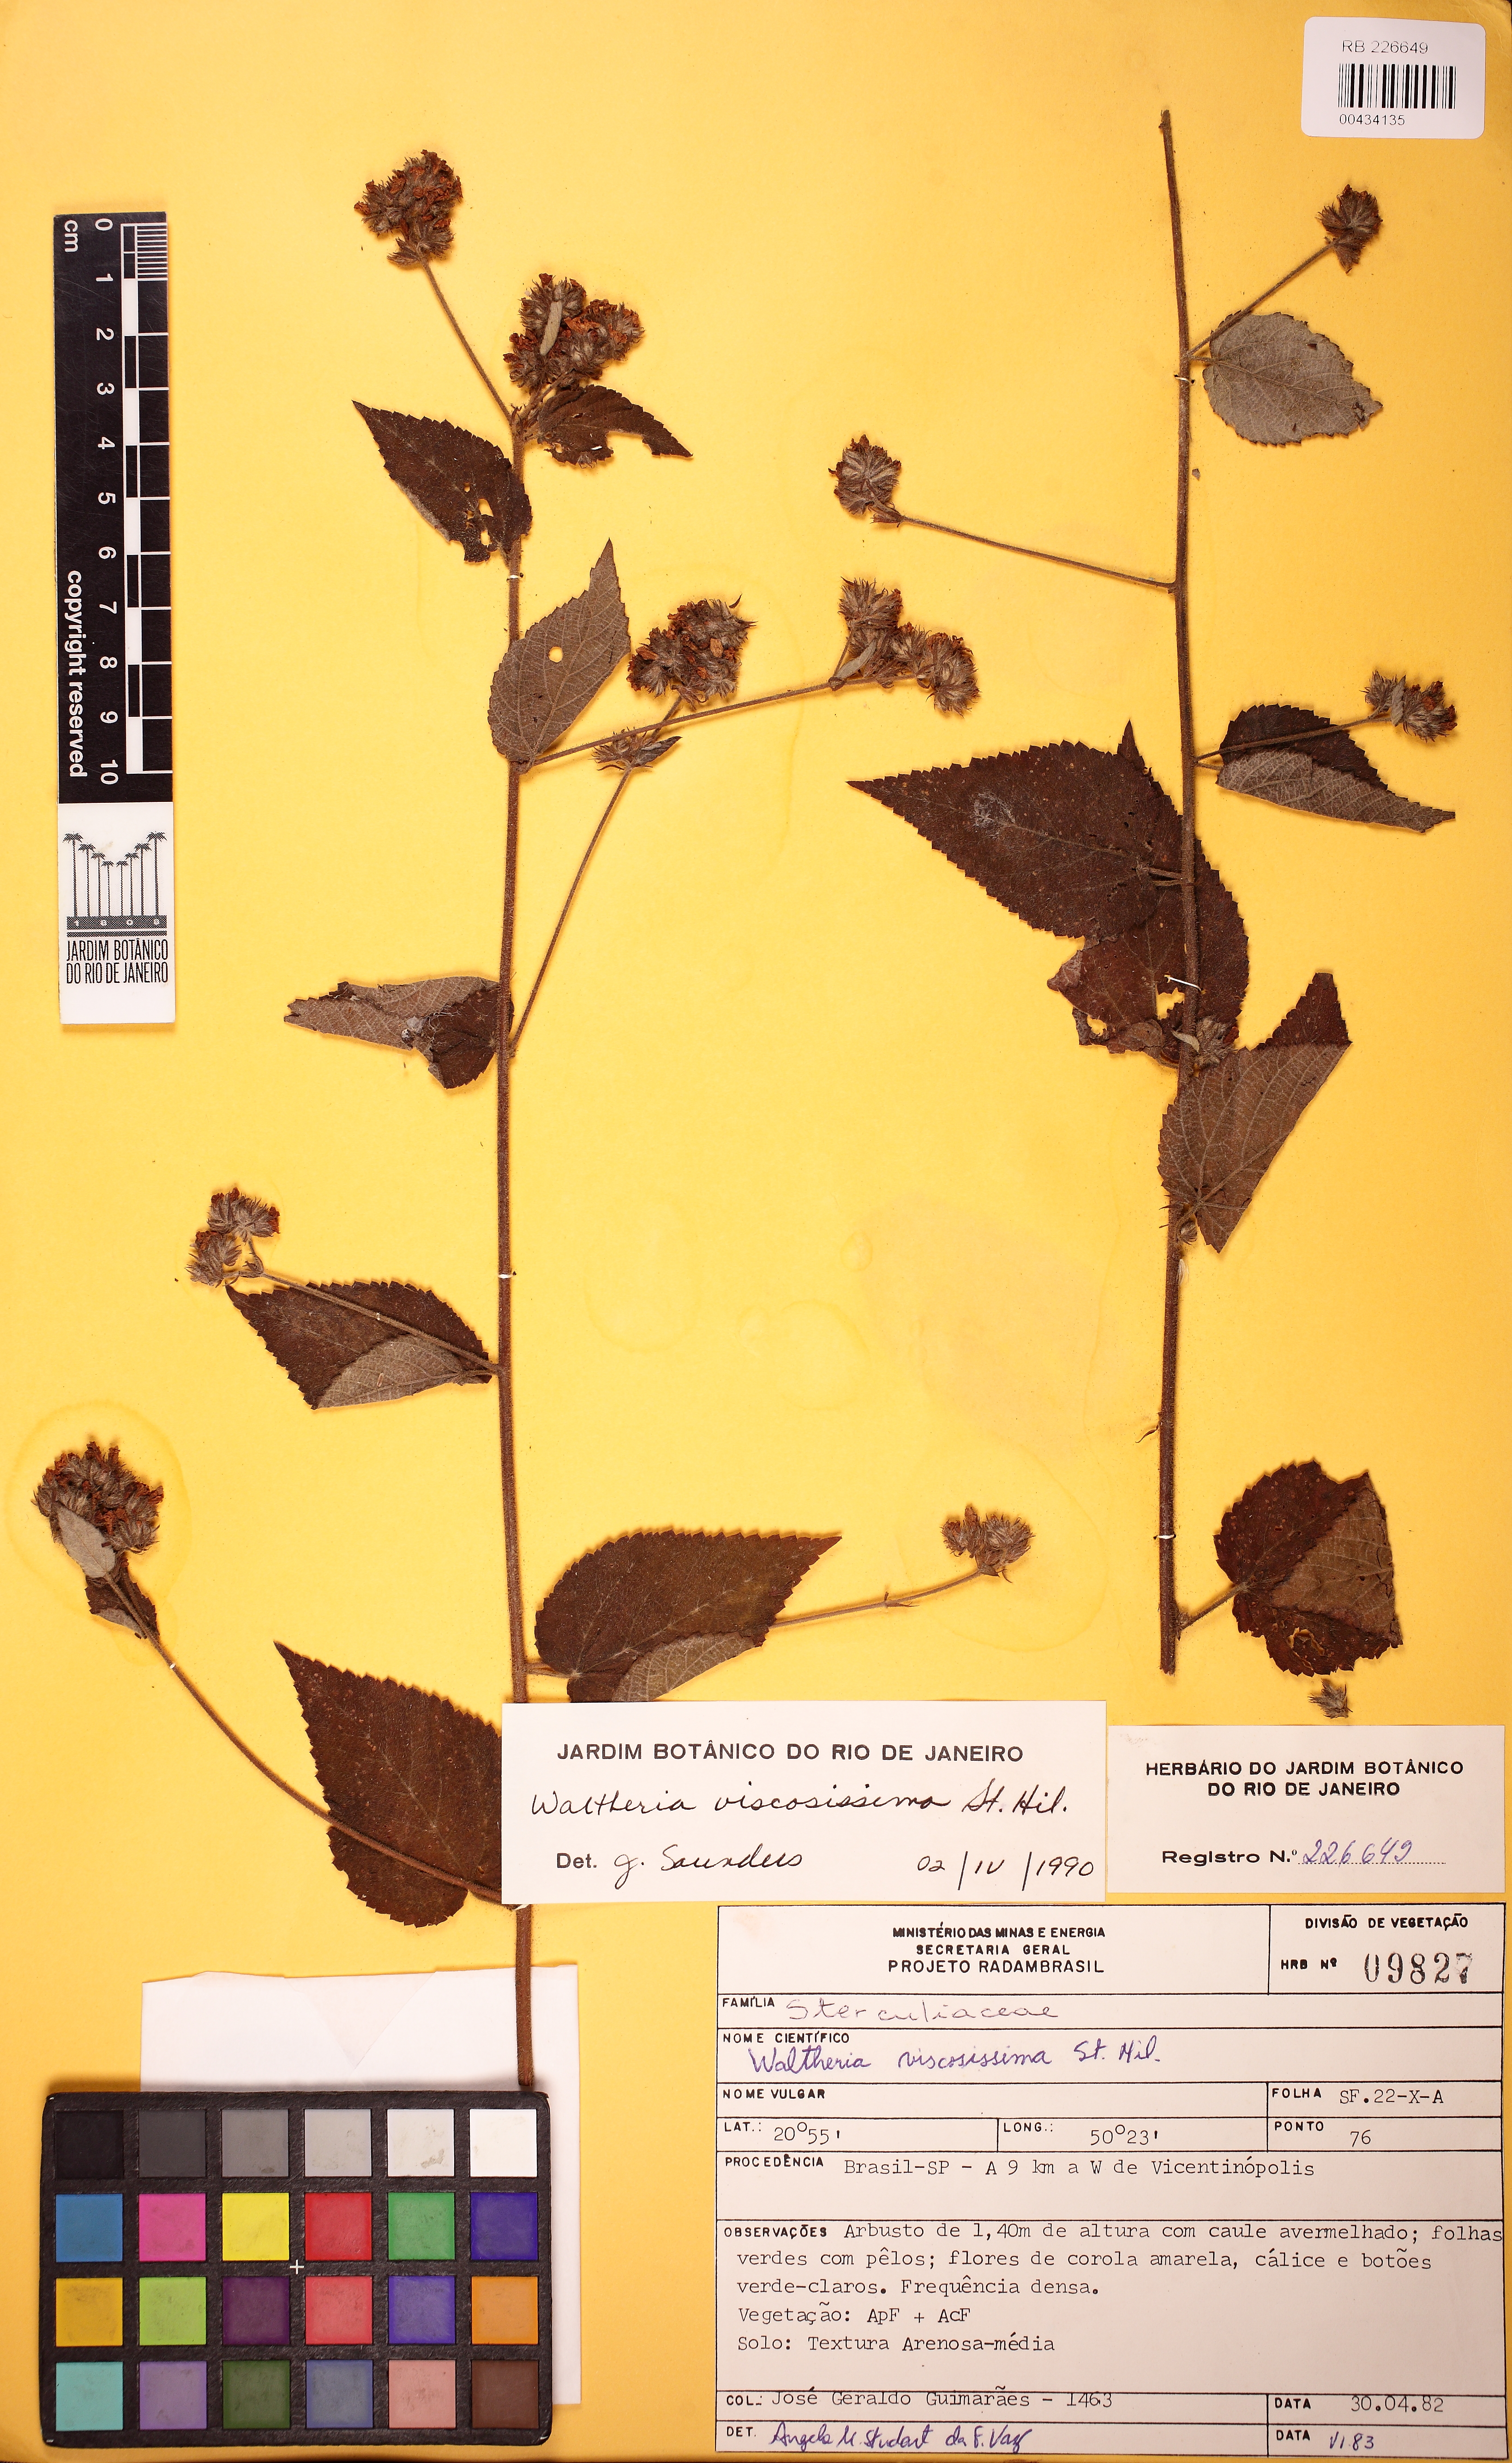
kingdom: Plantae
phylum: Tracheophyta
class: Magnoliopsida
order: Malvales
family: Malvaceae
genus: Waltheria
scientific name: Waltheria viscosissima
